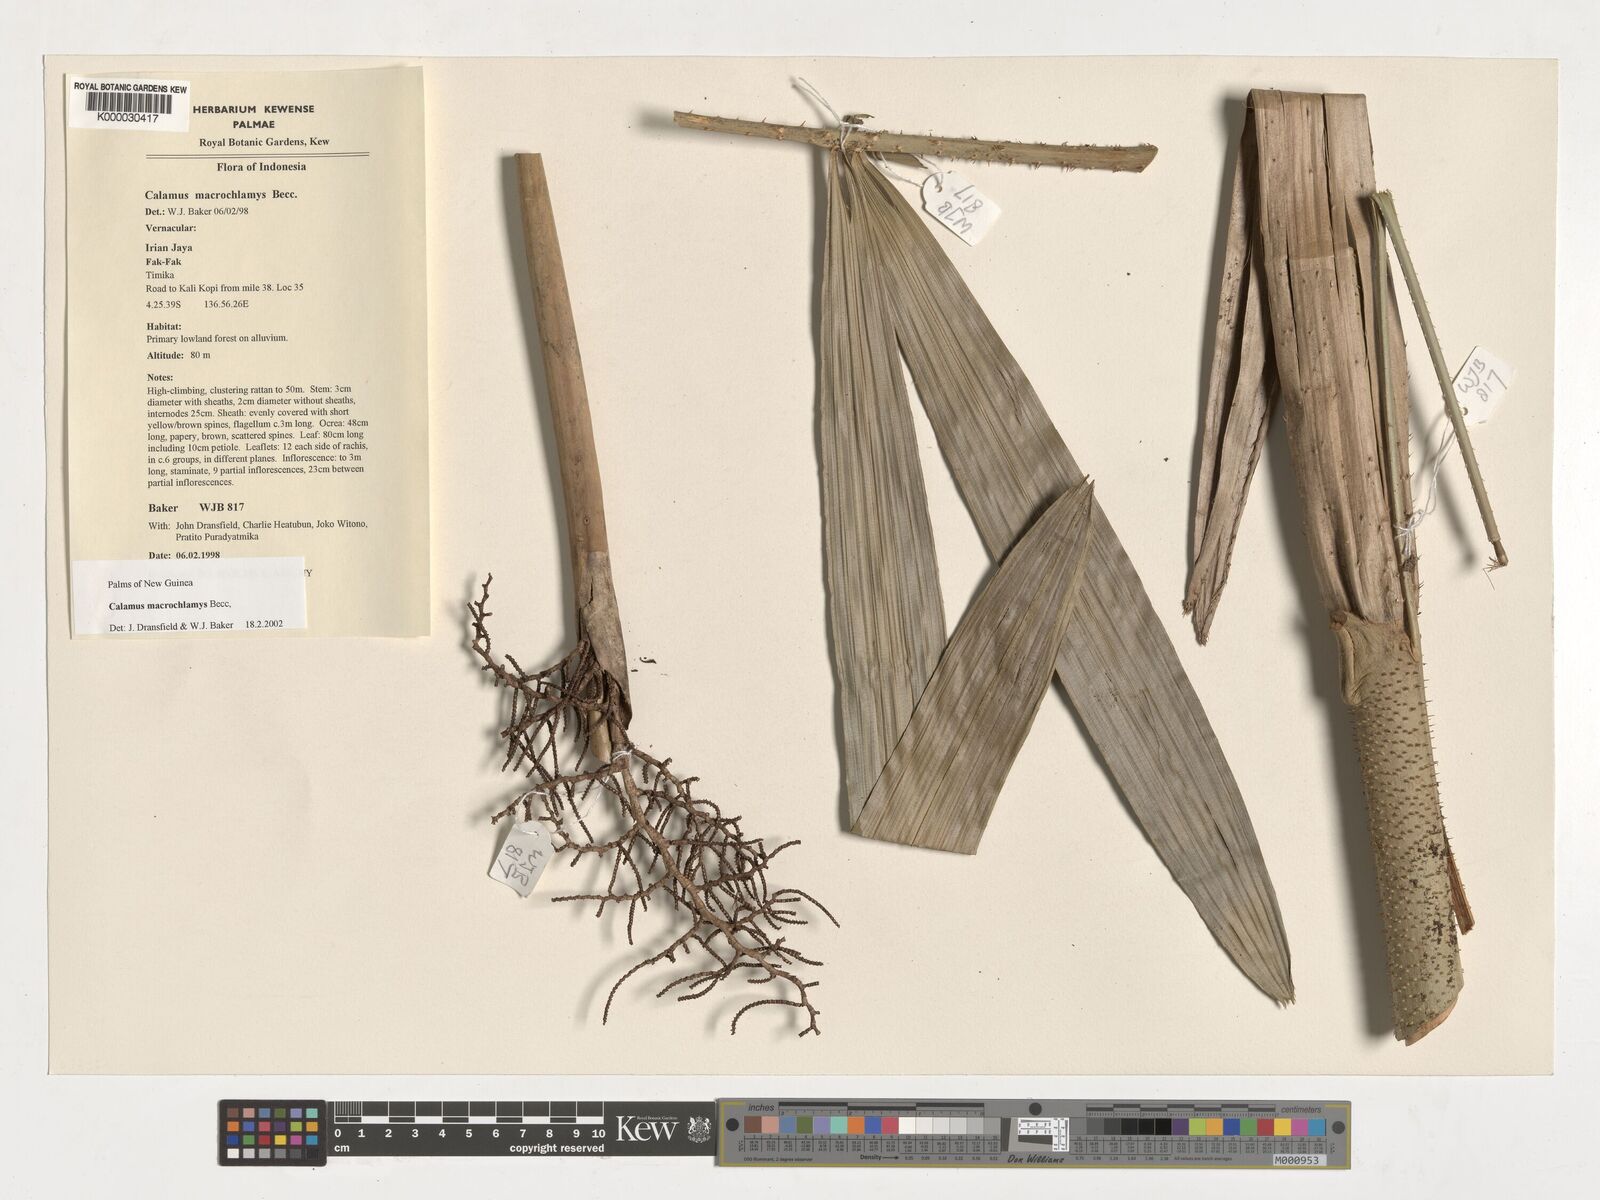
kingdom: Plantae
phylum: Tracheophyta
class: Liliopsida
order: Arecales
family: Arecaceae
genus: Calamus
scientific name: Calamus macrochlamys
